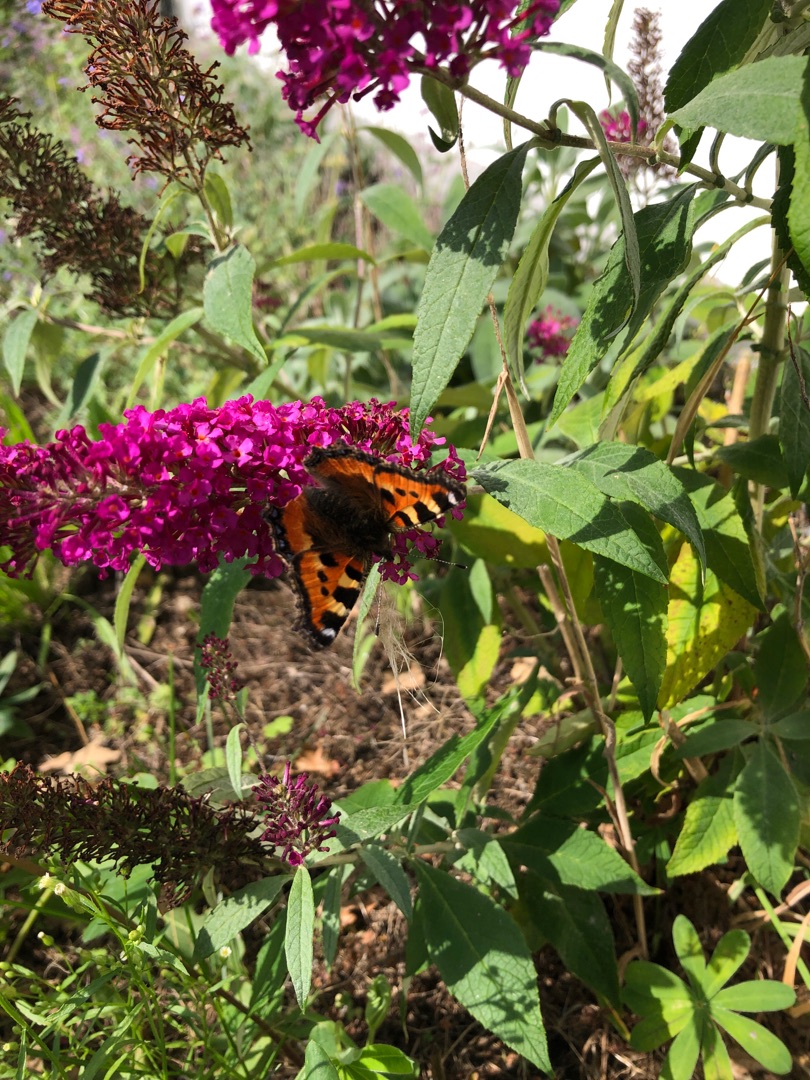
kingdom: Animalia
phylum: Arthropoda
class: Insecta
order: Lepidoptera
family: Nymphalidae
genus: Aglais
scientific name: Aglais urticae
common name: Nældens takvinge
